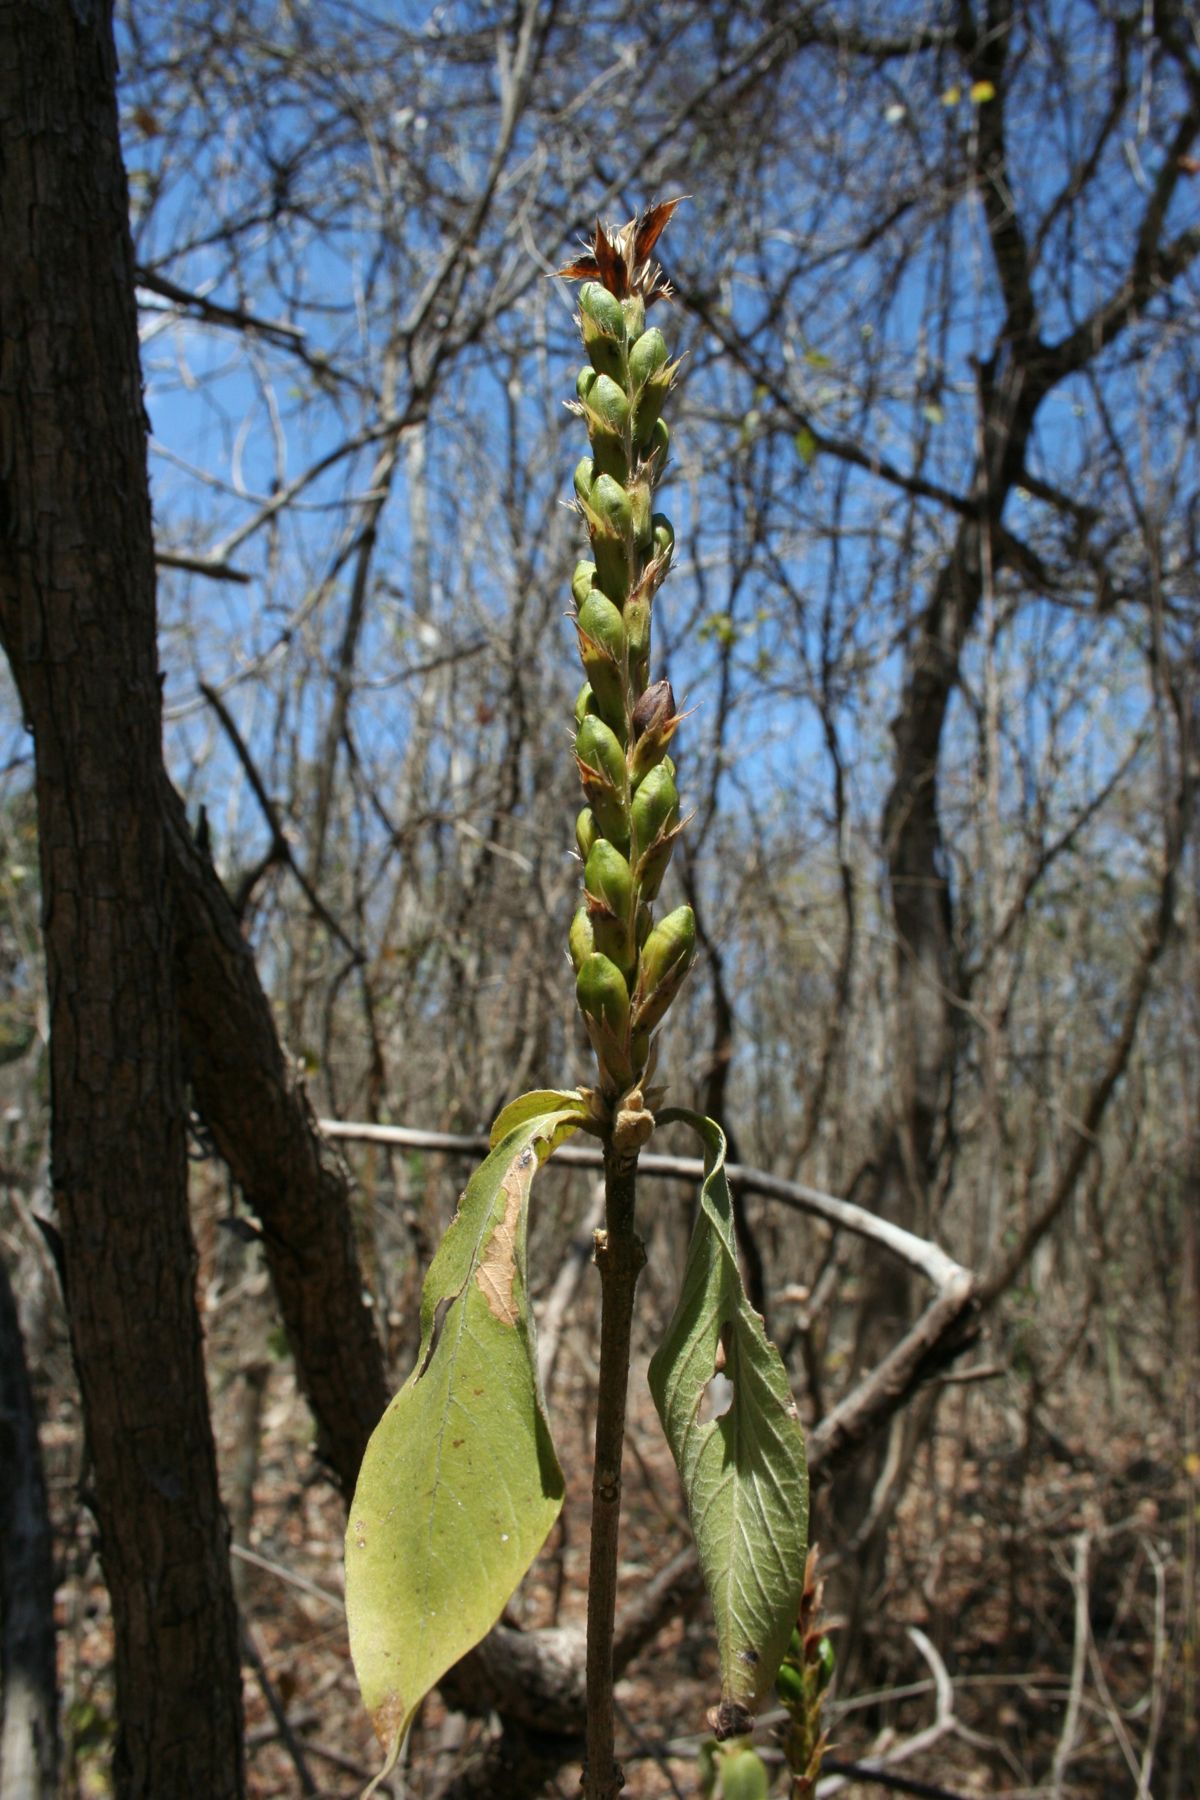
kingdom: Plantae
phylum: Tracheophyta
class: Magnoliopsida
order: Lamiales
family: Acanthaceae
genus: Aphelandra
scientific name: Aphelandra scabra
